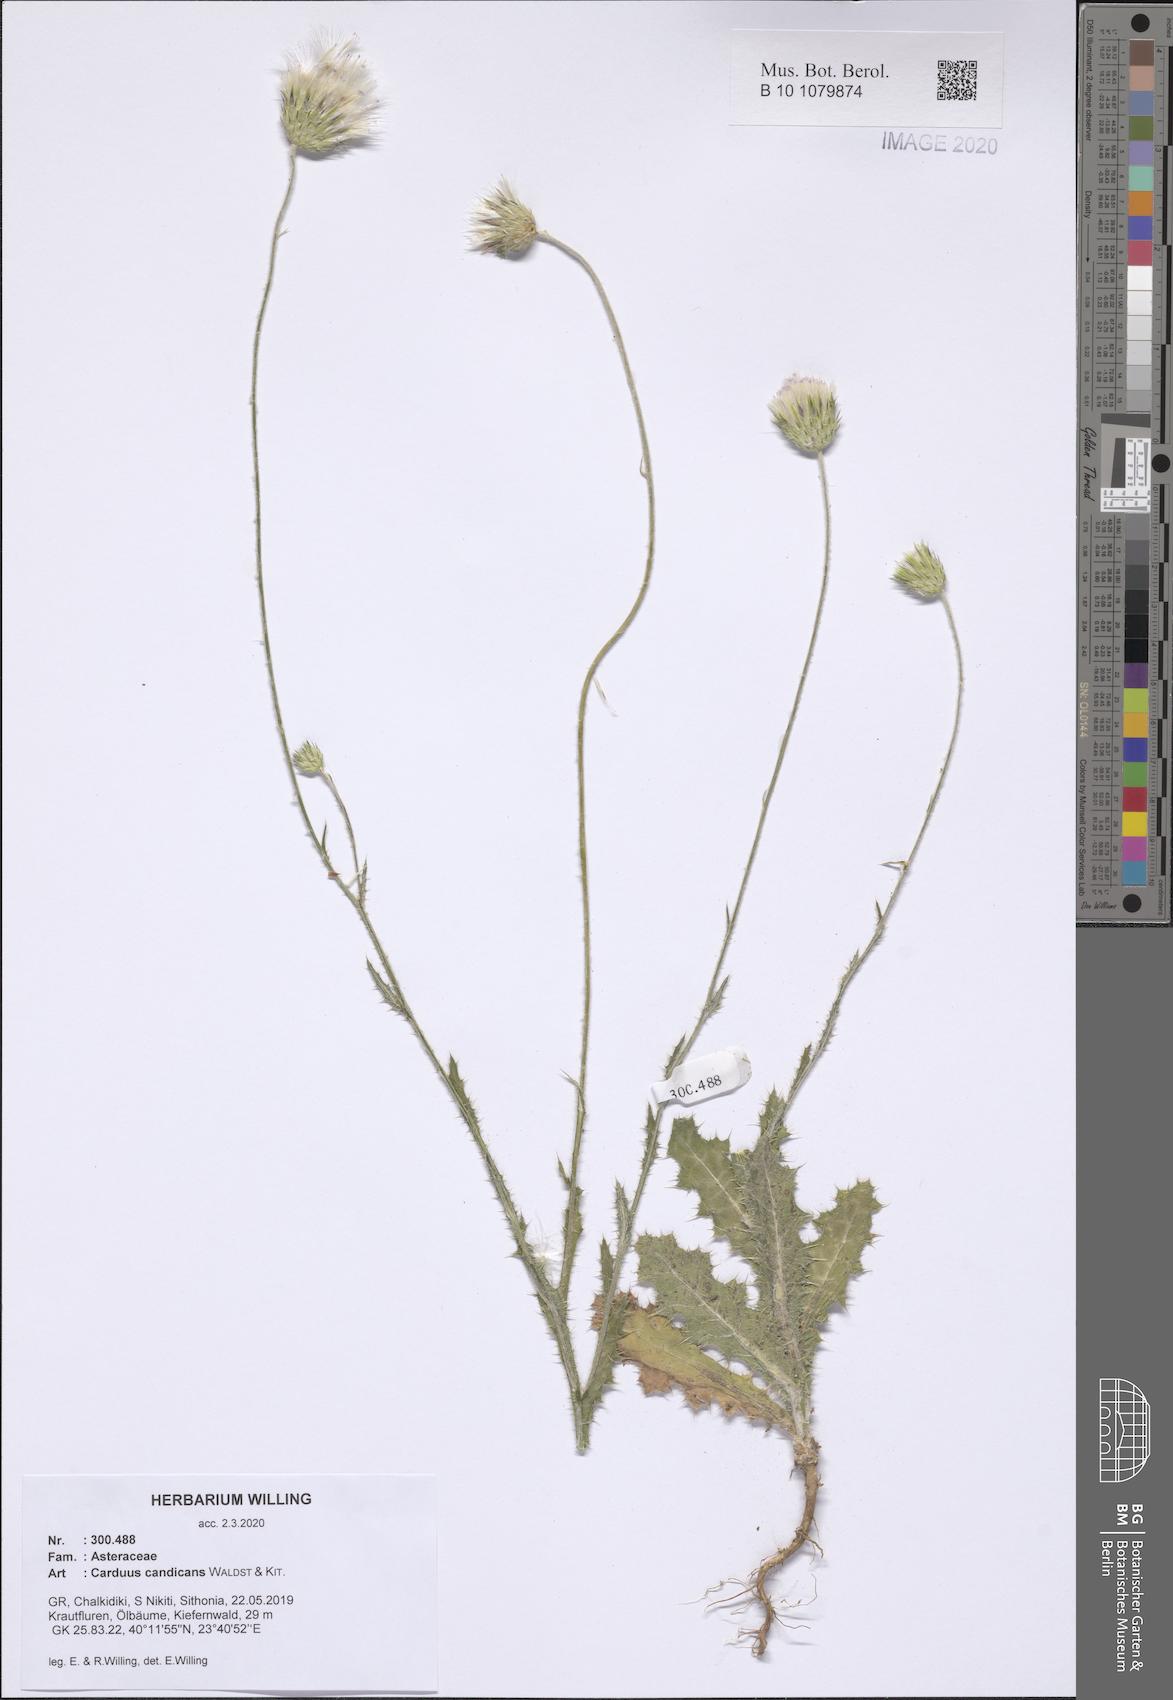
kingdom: Plantae
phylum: Tracheophyta
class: Magnoliopsida
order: Asterales
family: Asteraceae
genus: Carduus
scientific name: Carduus candicans
